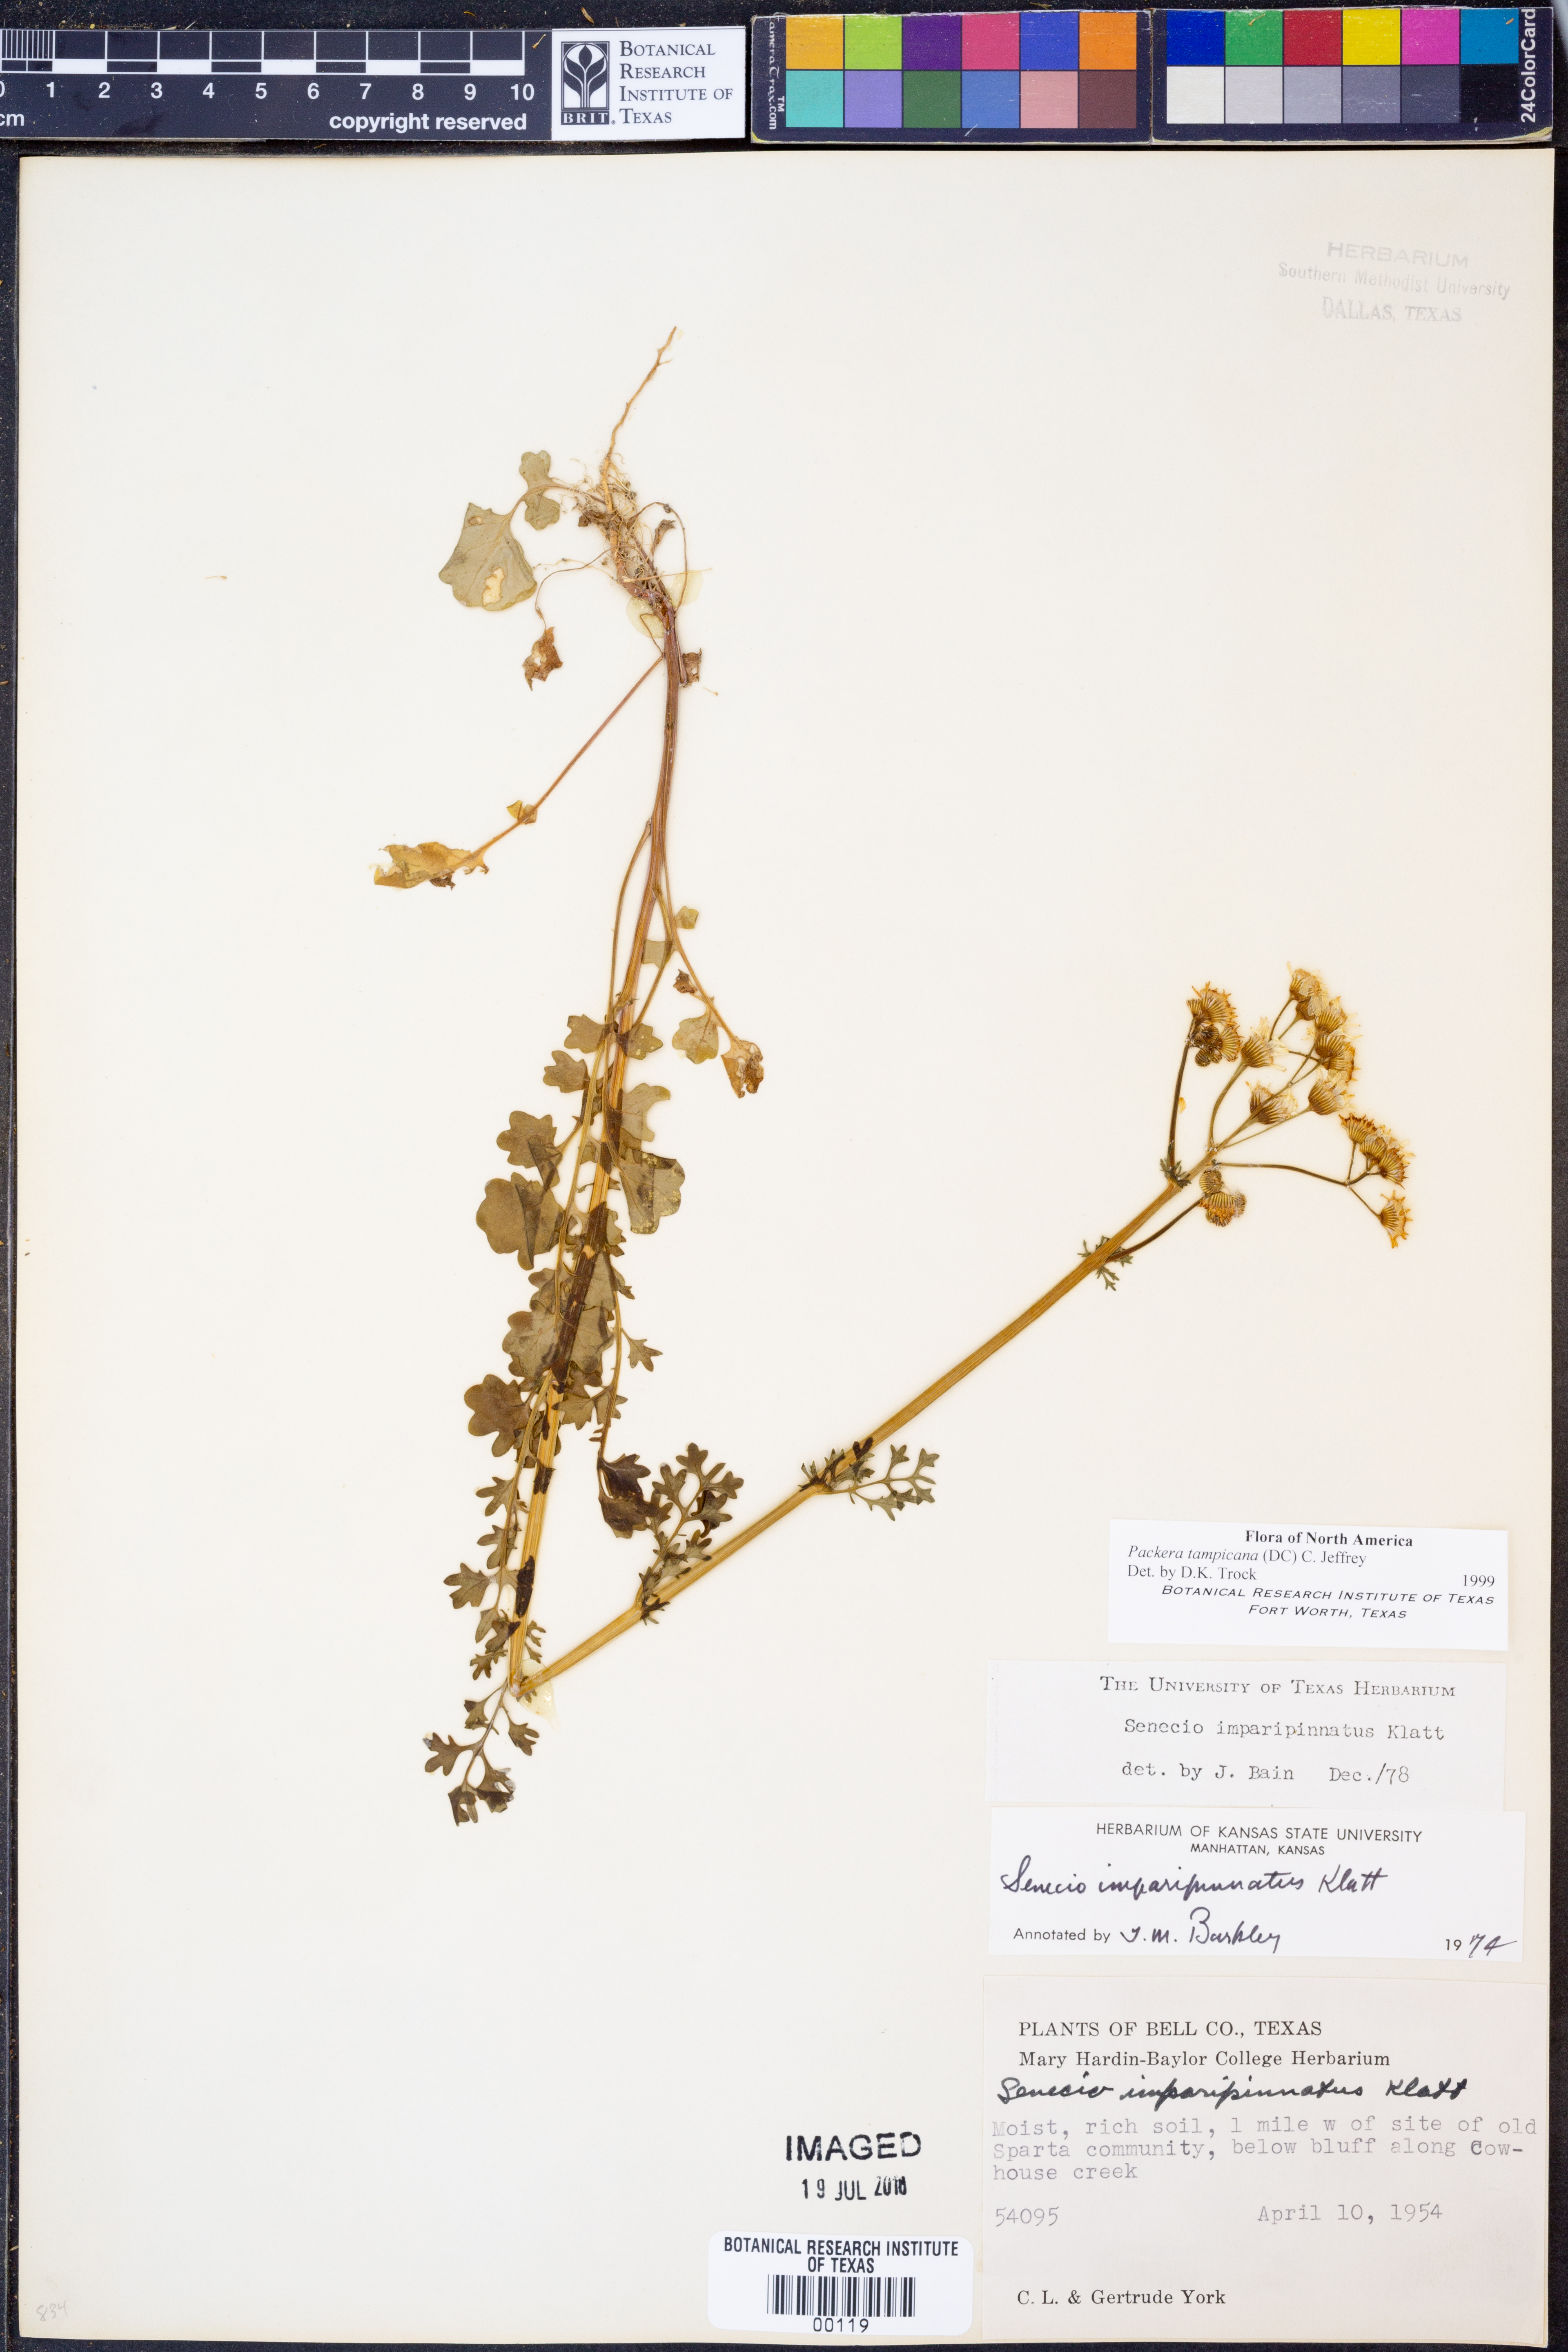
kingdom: Plantae
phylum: Tracheophyta
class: Magnoliopsida
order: Asterales
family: Asteraceae
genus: Packera
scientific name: Packera tampicana
